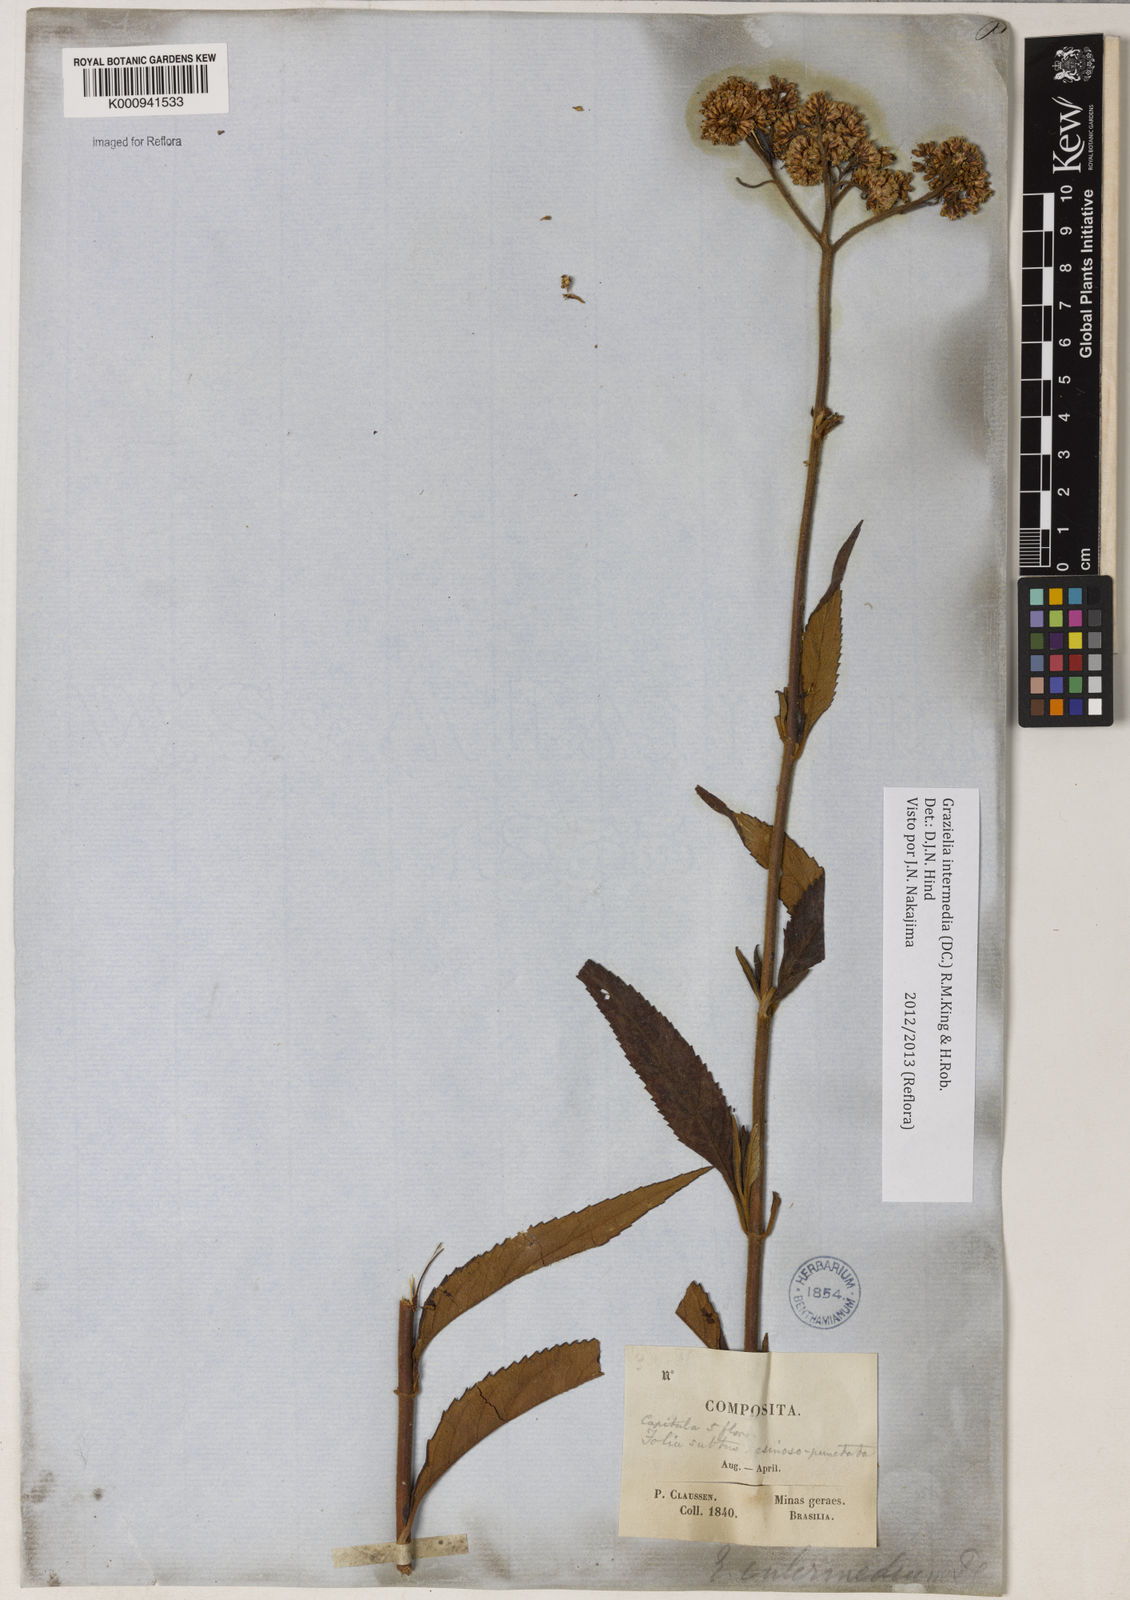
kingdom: Plantae
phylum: Tracheophyta
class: Magnoliopsida
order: Asterales
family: Asteraceae
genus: Grazielia
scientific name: Grazielia intermedia
